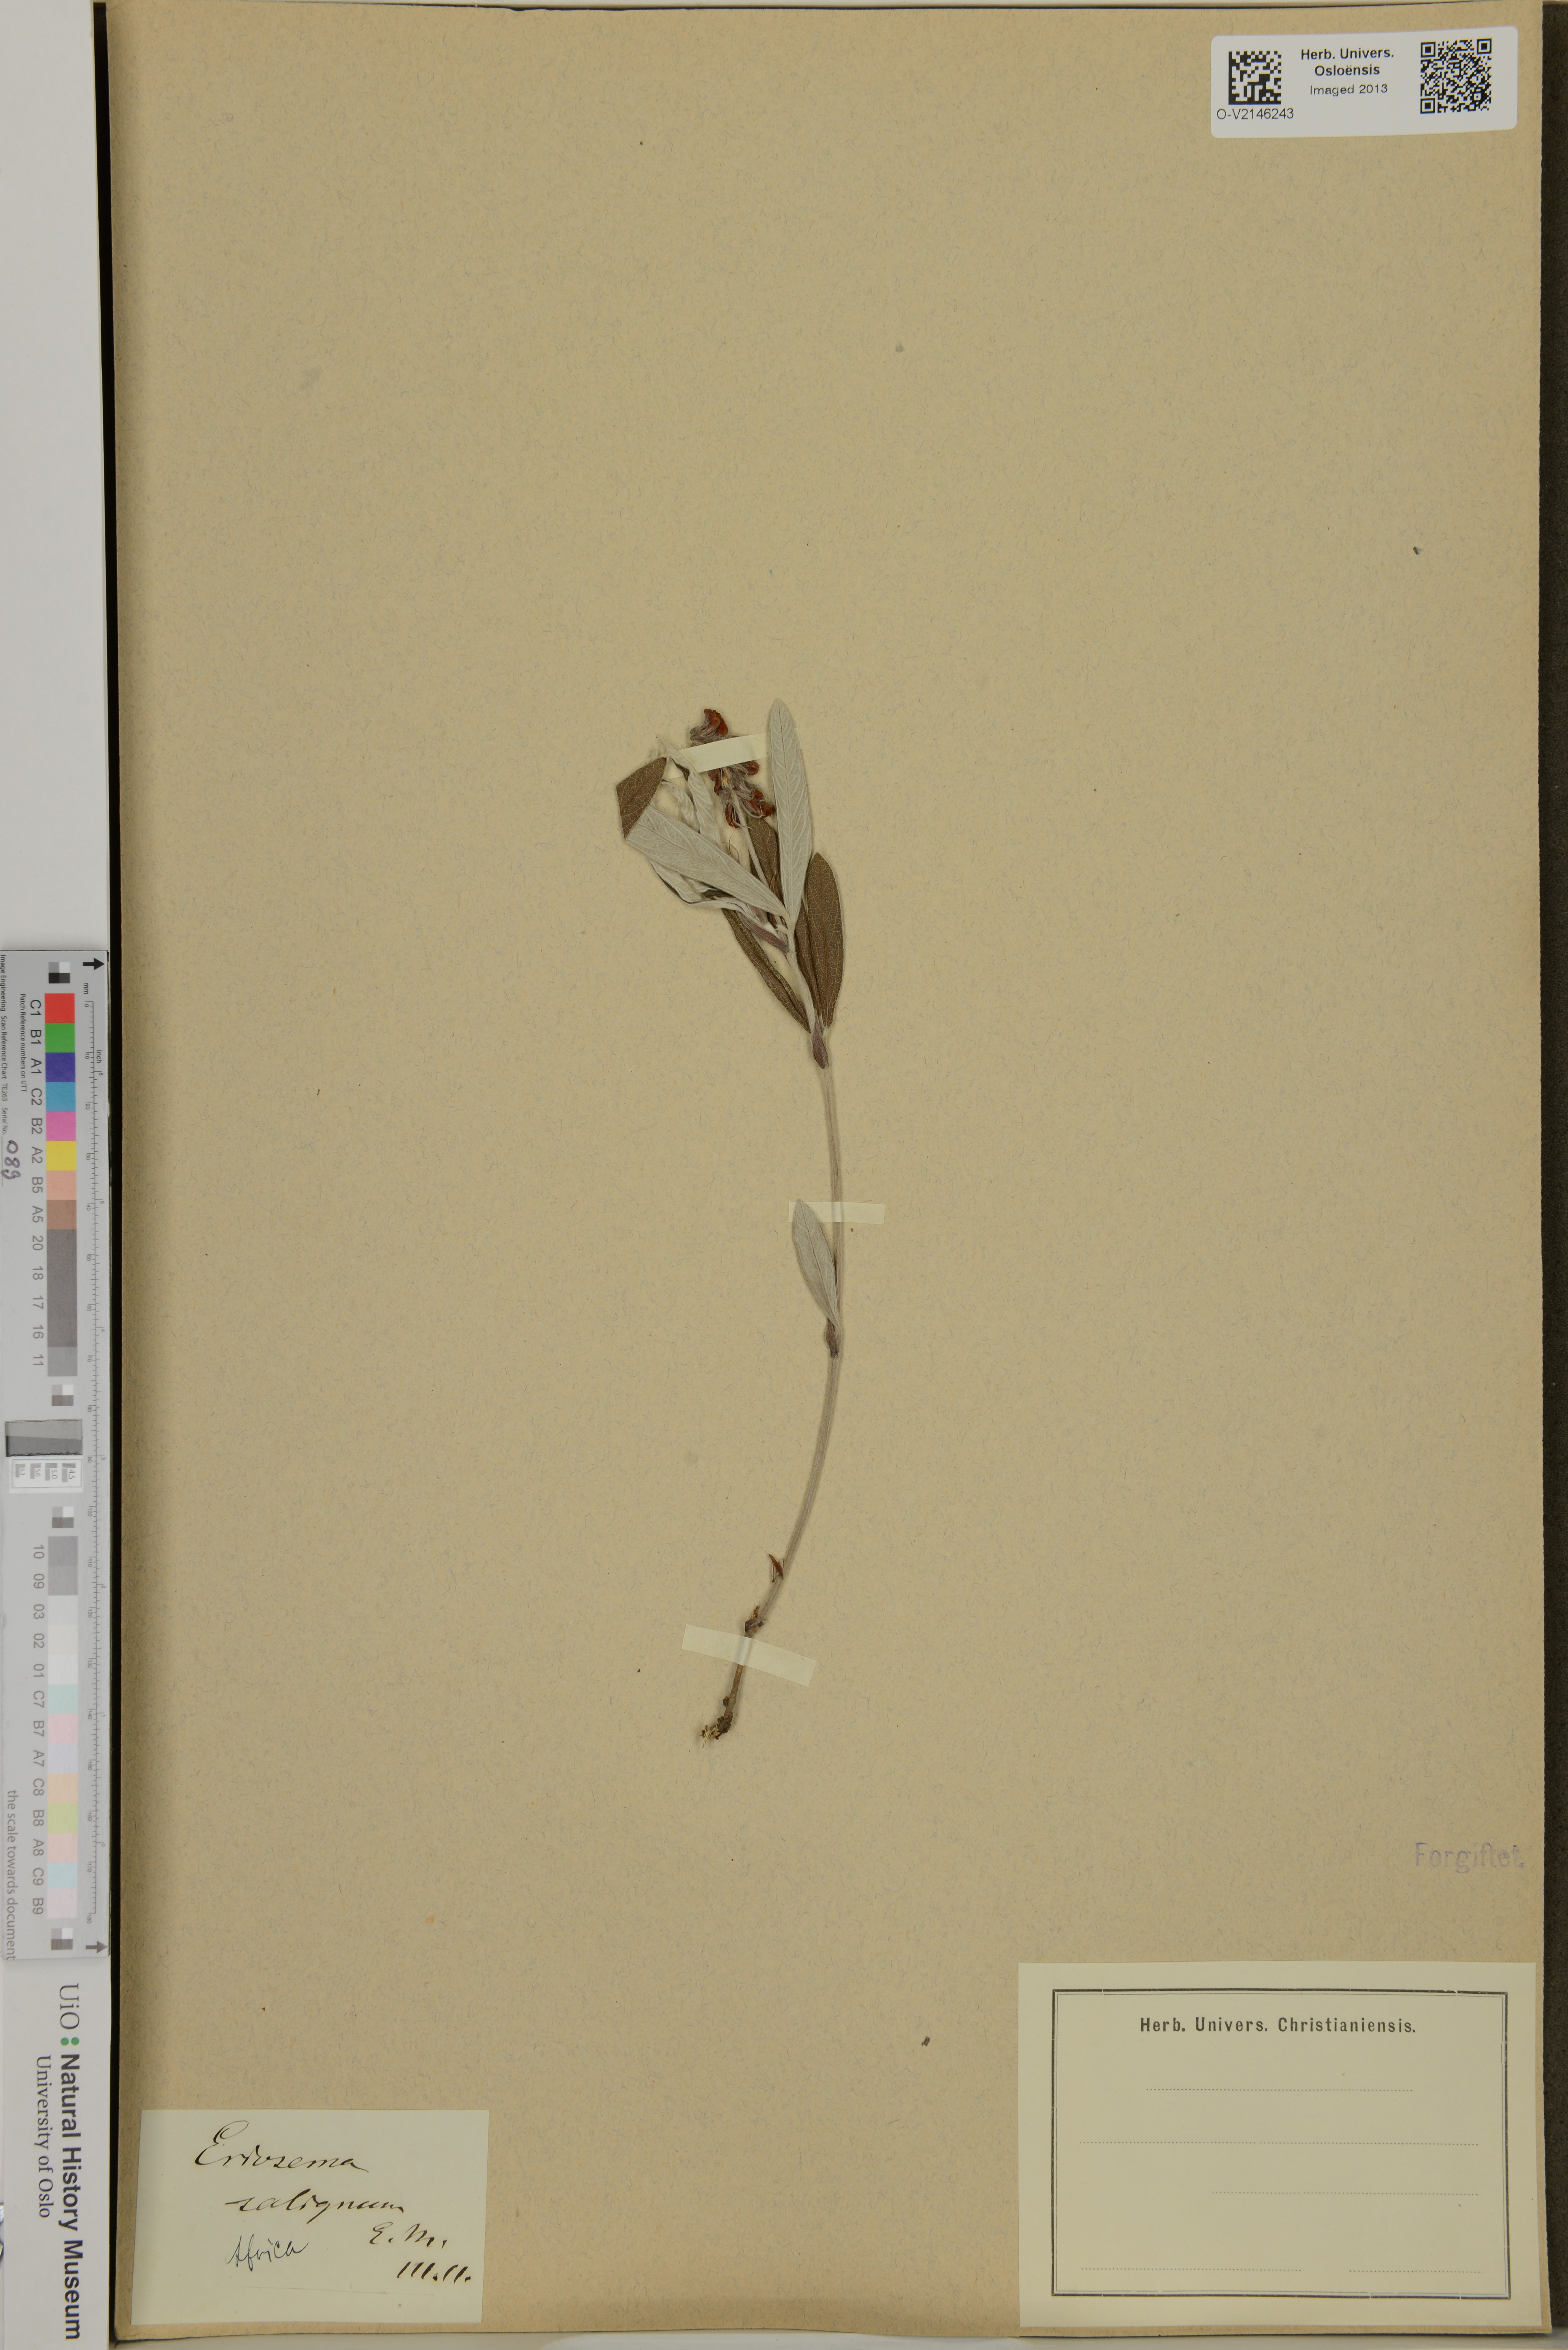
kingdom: Plantae
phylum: Tracheophyta
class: Magnoliopsida
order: Fabales
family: Fabaceae
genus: Eriosema
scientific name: Eriosema salignum
